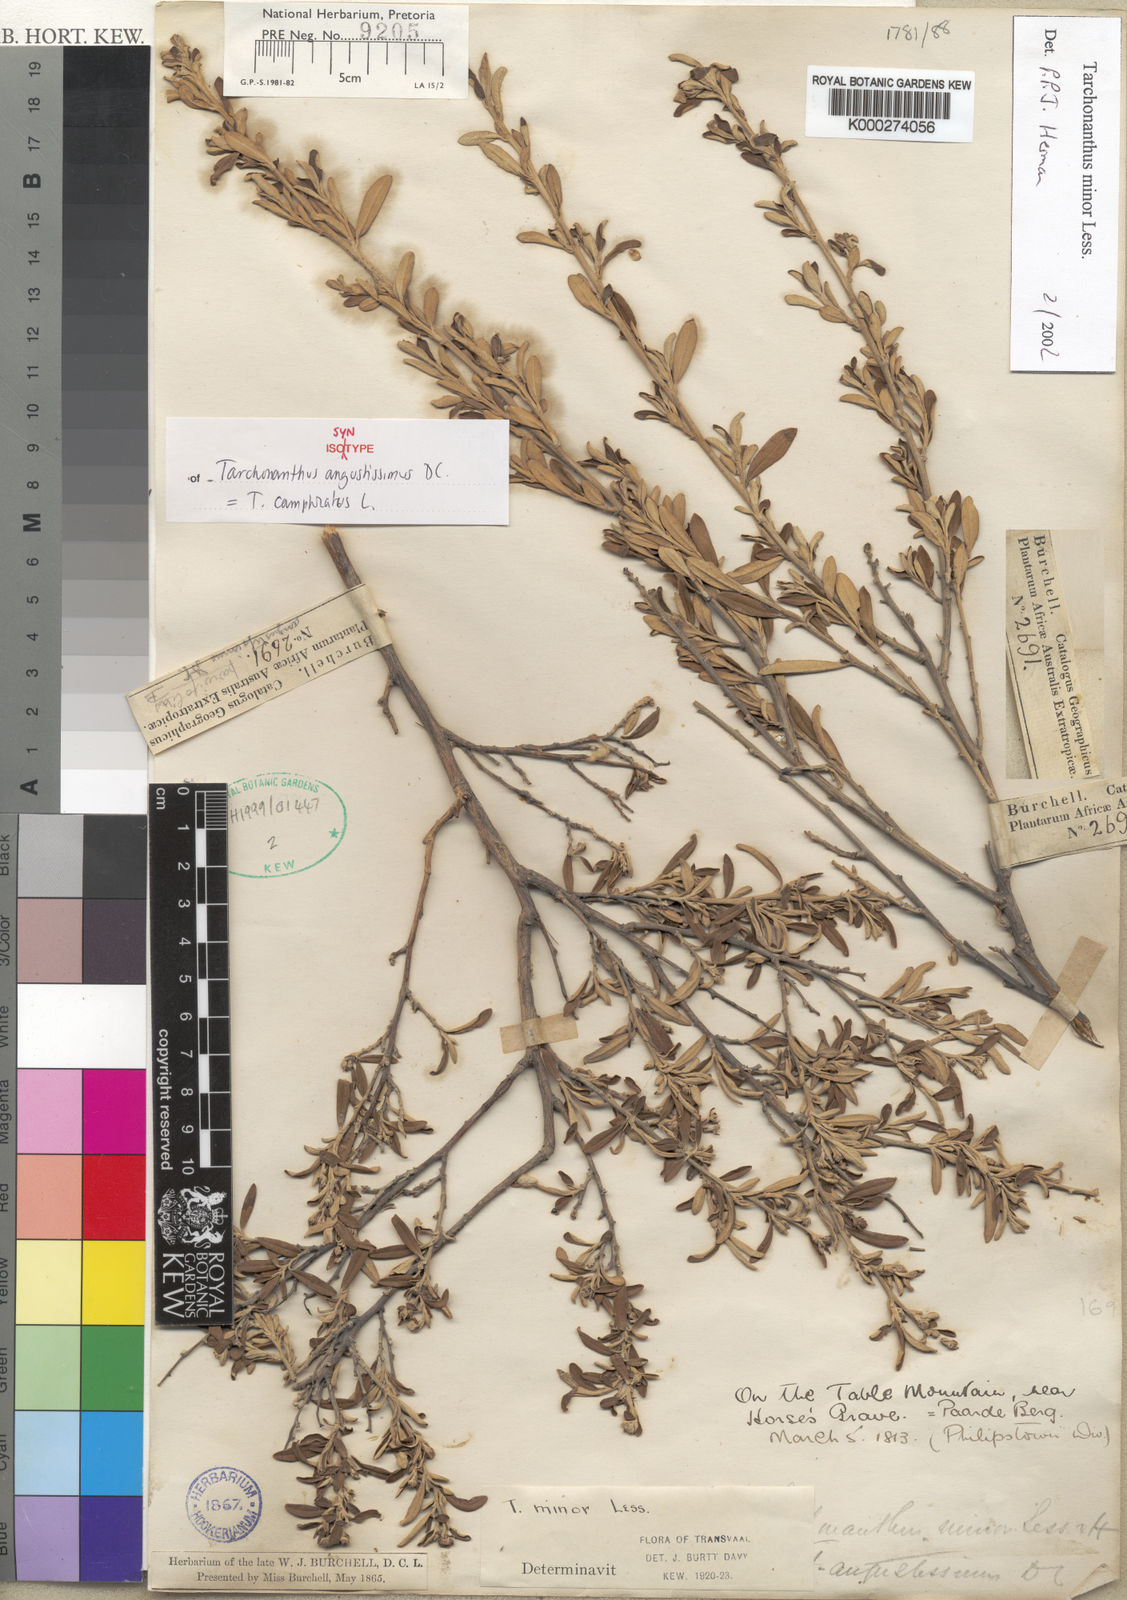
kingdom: Plantae
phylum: Tracheophyta
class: Magnoliopsida
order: Asterales
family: Asteraceae
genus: Tarchonanthus
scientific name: Tarchonanthus camphoratus
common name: Camphorwood
